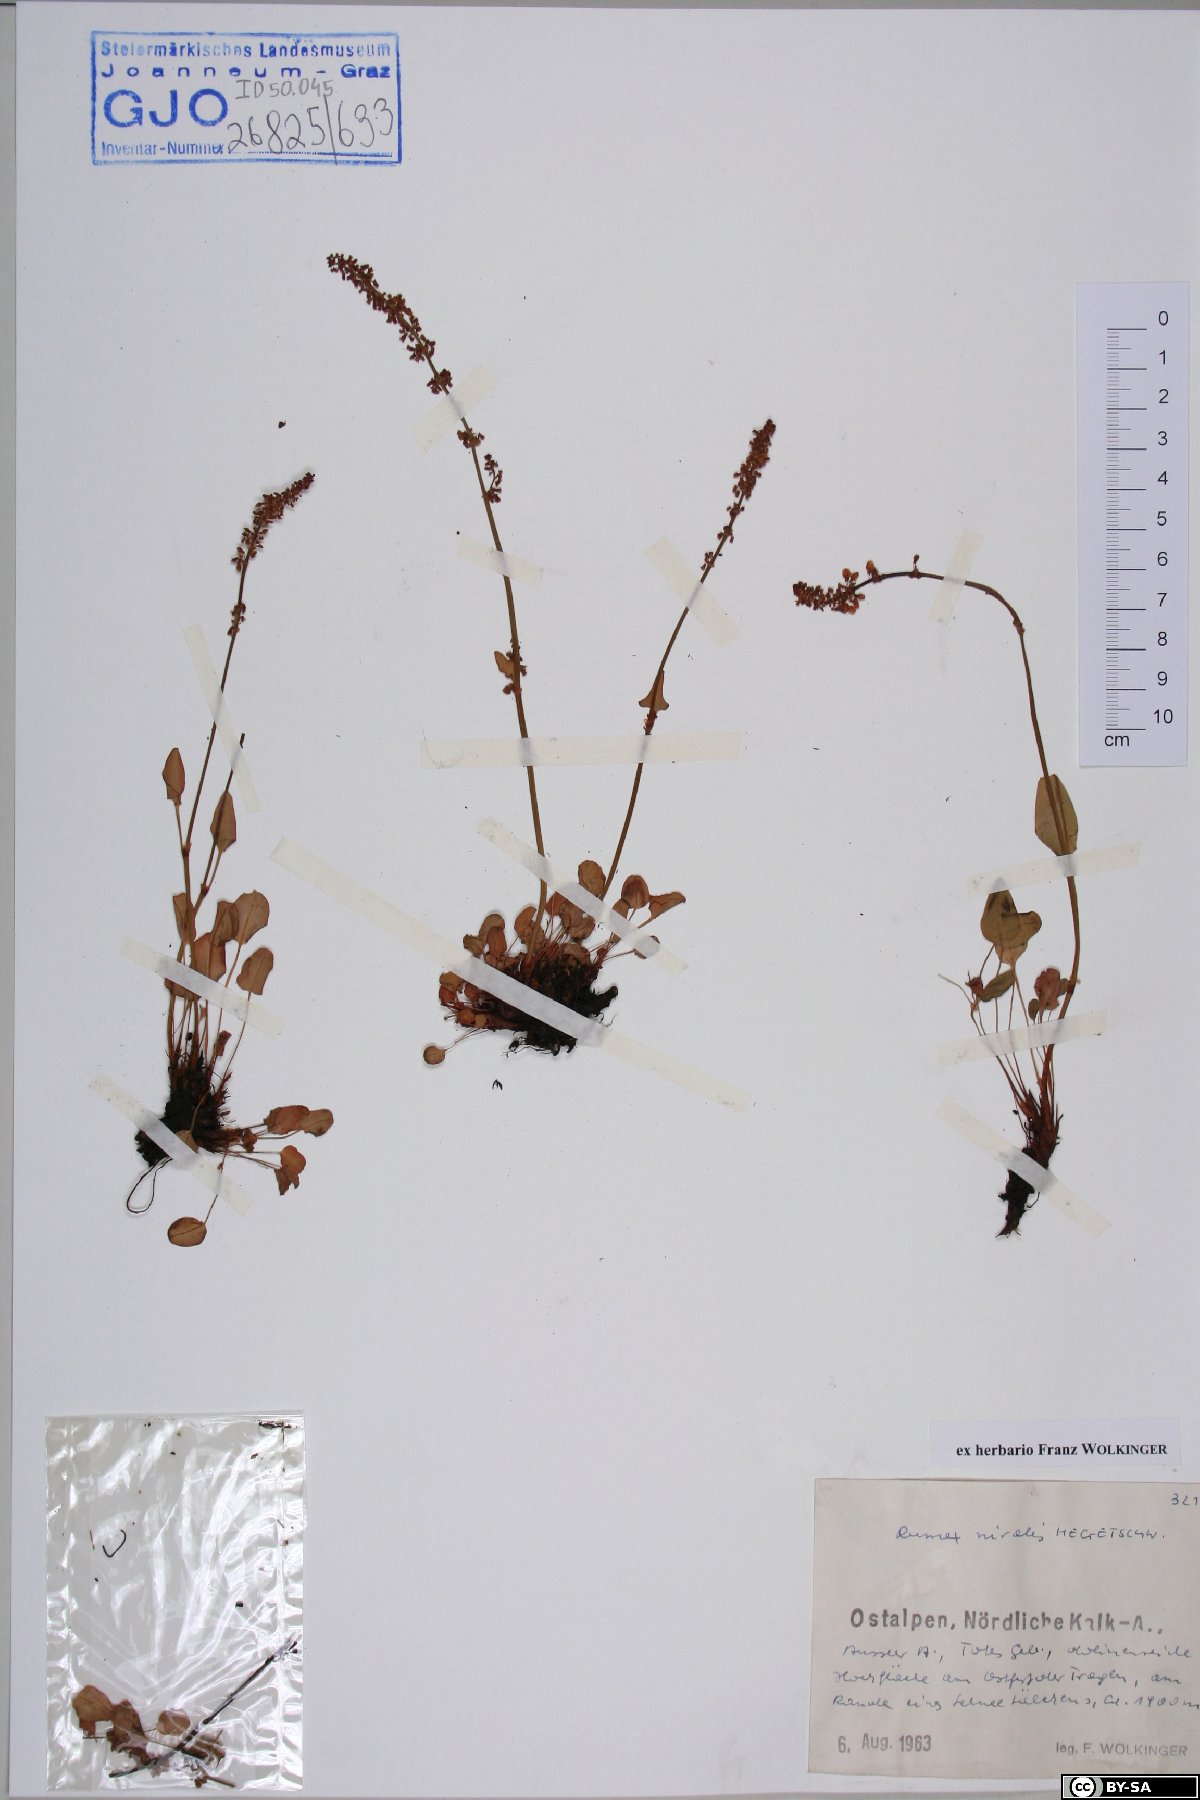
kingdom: Plantae
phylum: Tracheophyta
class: Magnoliopsida
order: Caryophyllales
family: Polygonaceae
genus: Rumex
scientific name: Rumex nivalis
